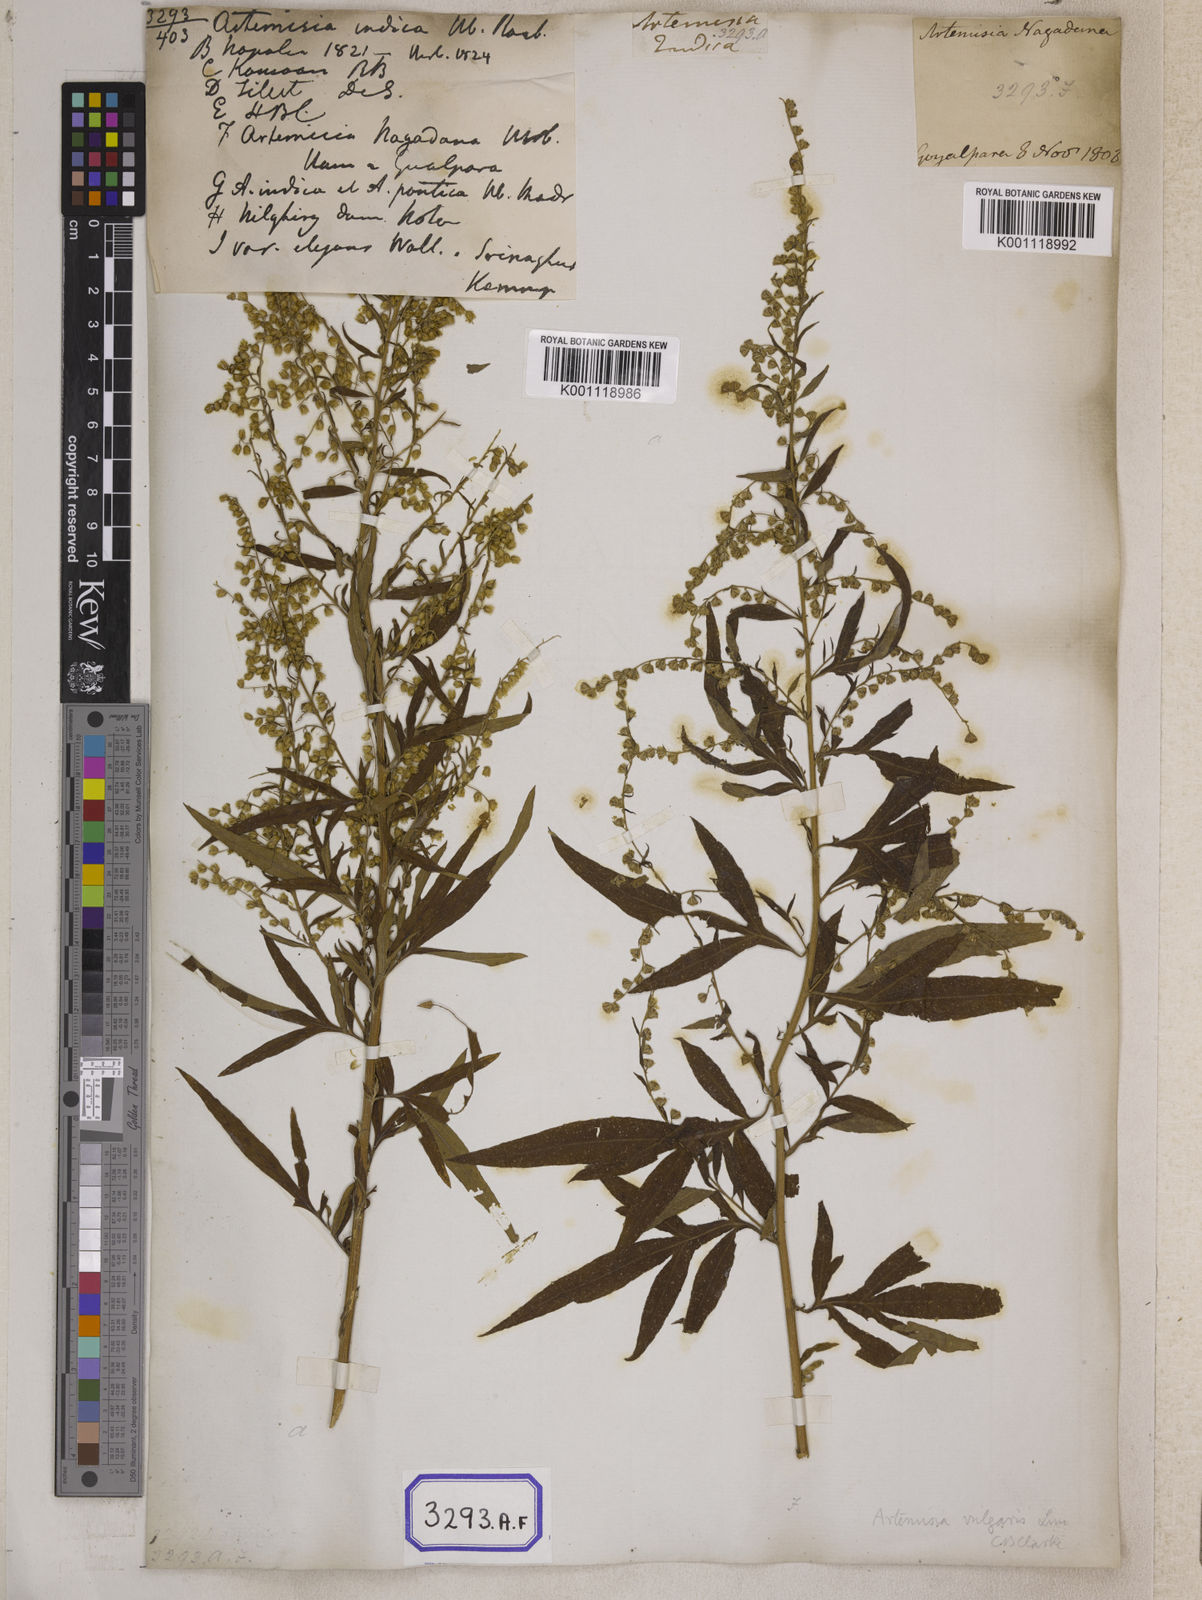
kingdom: Plantae
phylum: Tracheophyta
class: Magnoliopsida
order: Asterales
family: Asteraceae
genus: Artemisia
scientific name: Artemisia indica
